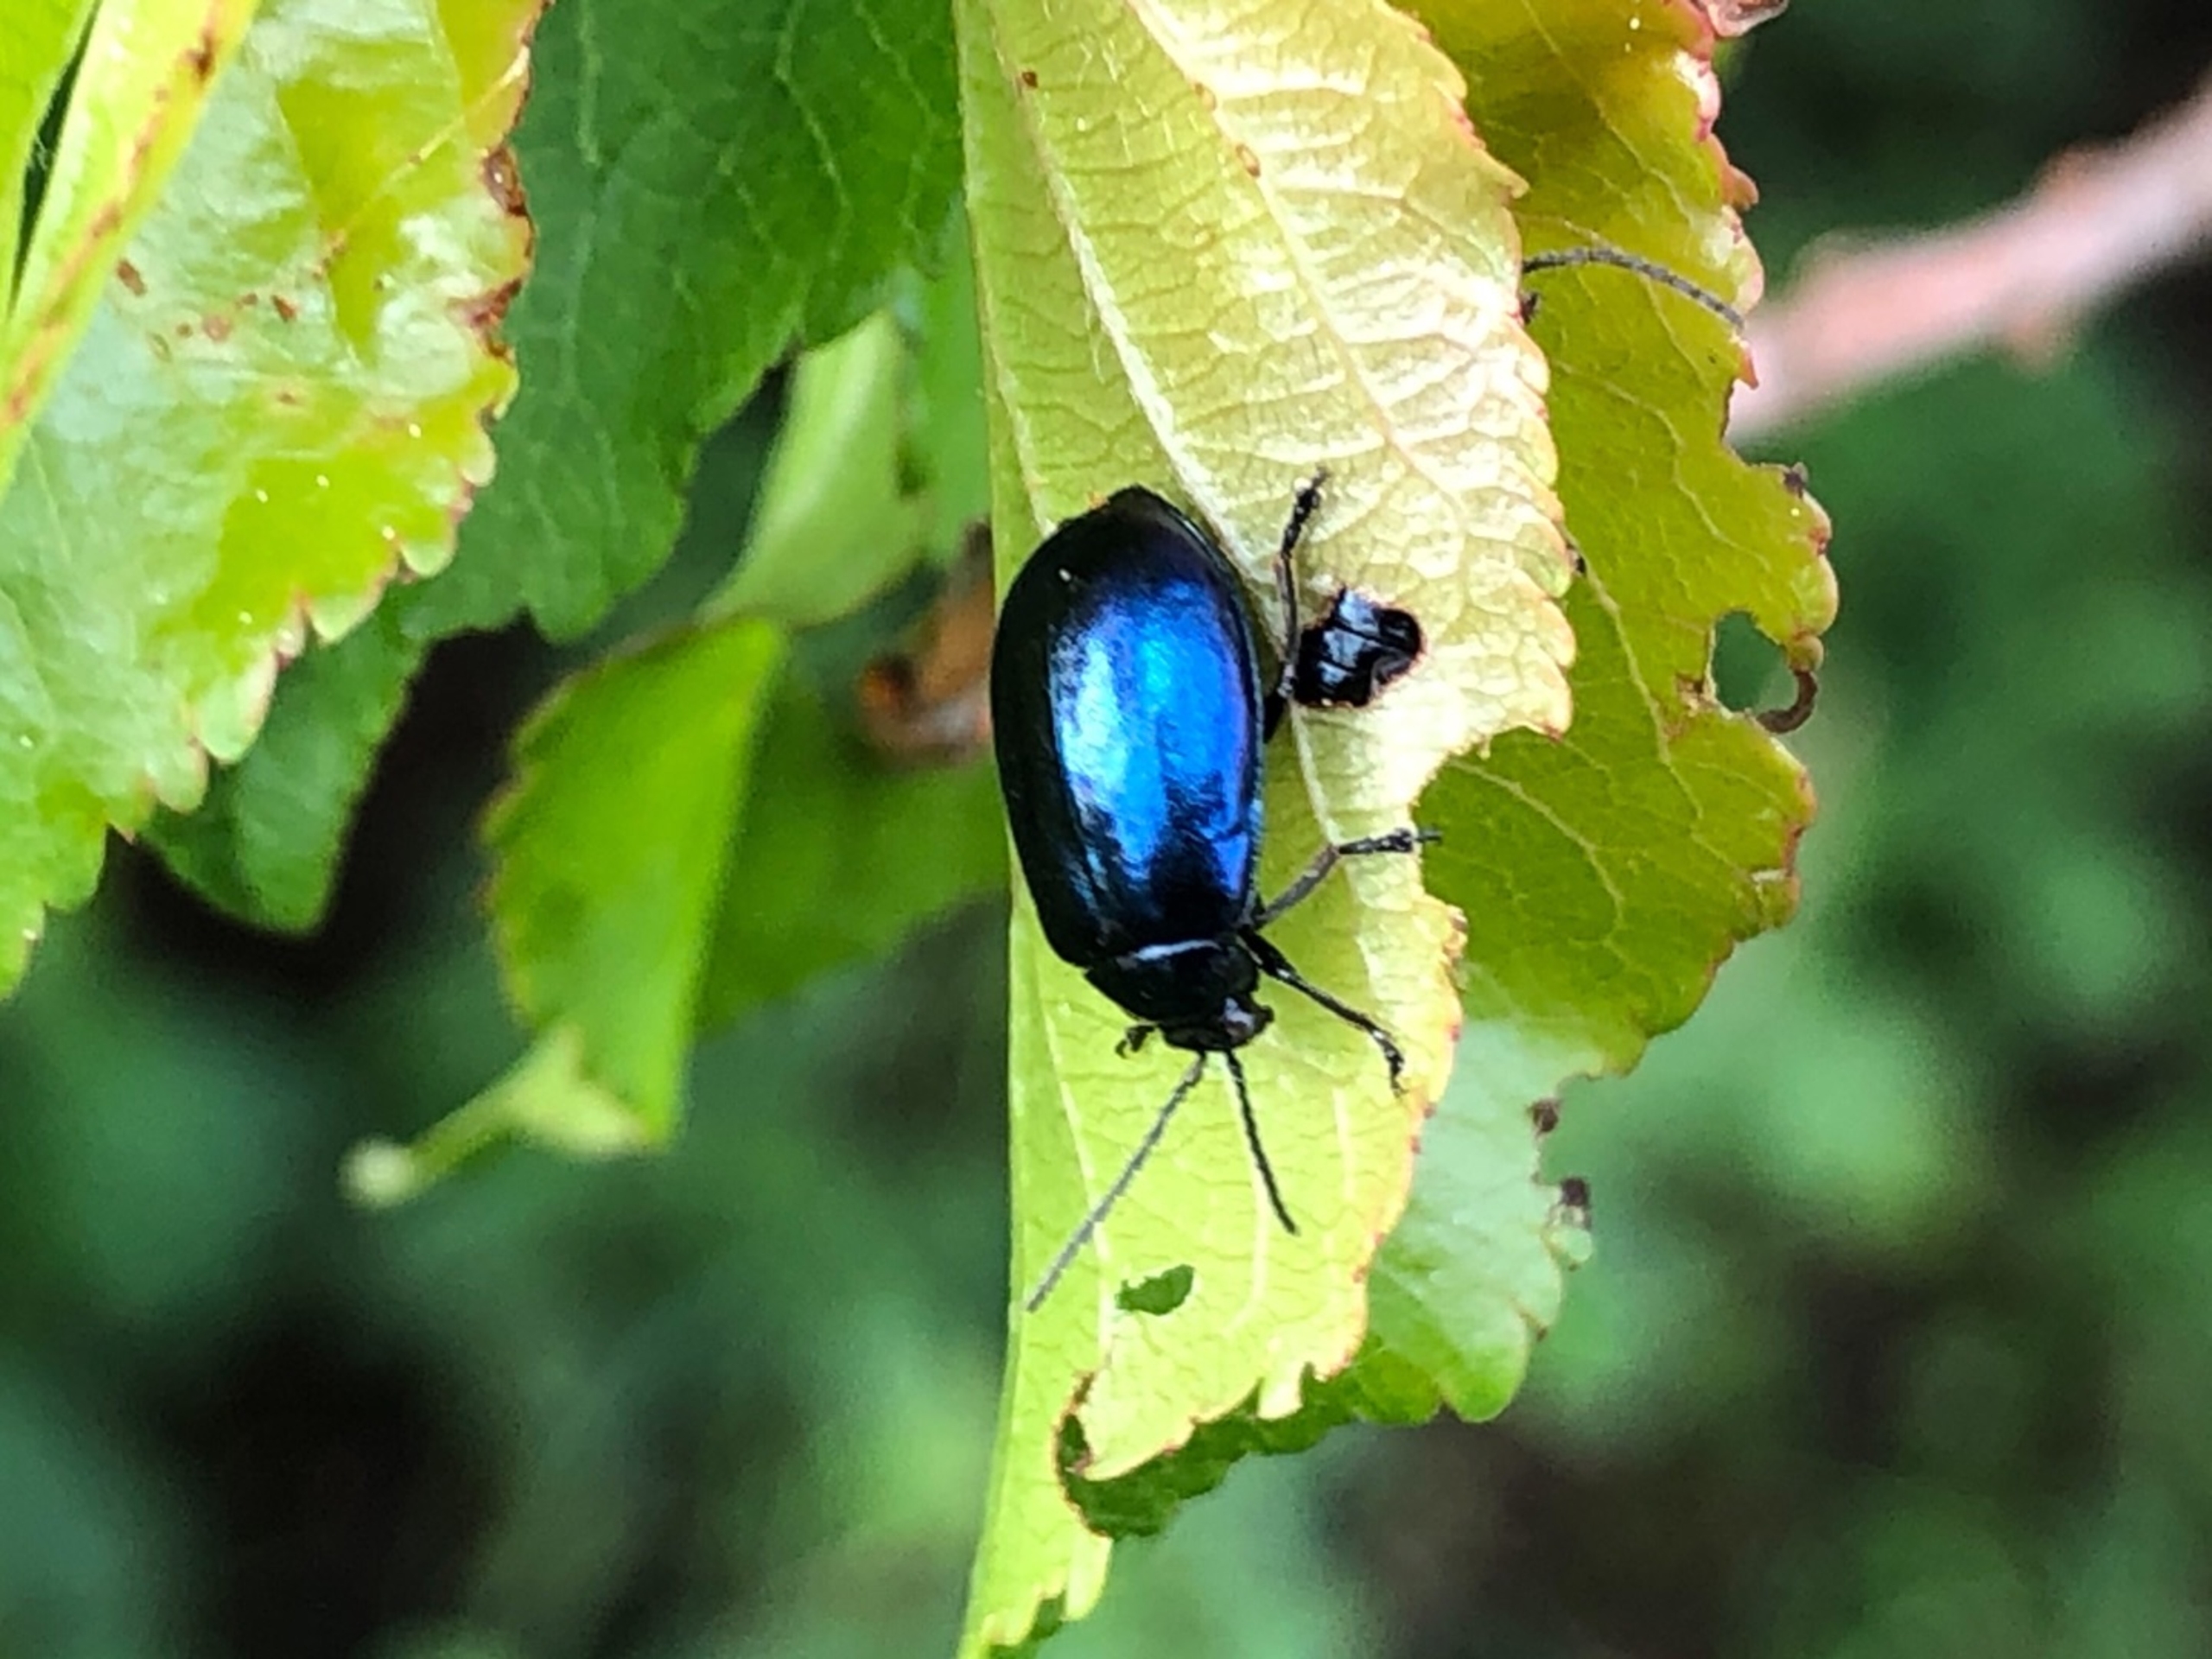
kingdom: Animalia
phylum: Arthropoda
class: Insecta
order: Coleoptera
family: Chrysomelidae
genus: Agelastica
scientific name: Agelastica alni
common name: Ellebladbille
